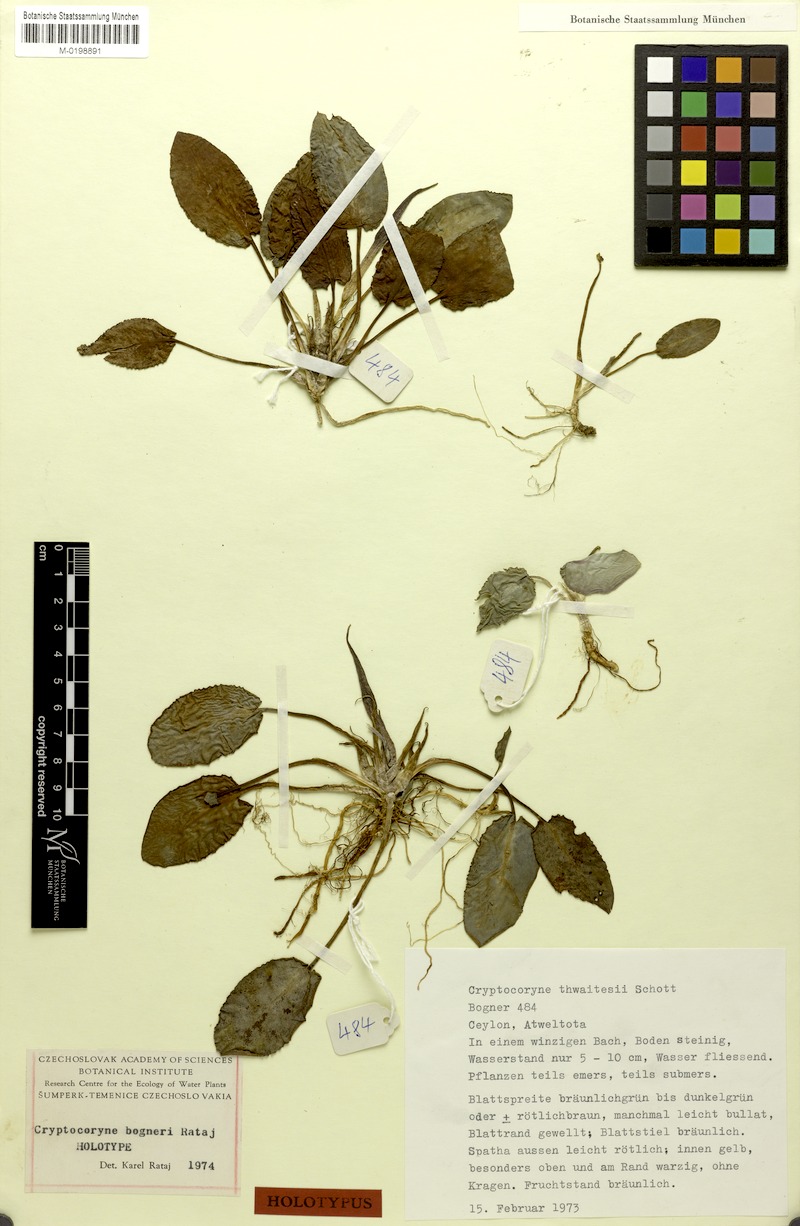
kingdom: Plantae
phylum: Tracheophyta
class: Liliopsida
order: Alismatales
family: Araceae
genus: Cryptocoryne
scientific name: Cryptocoryne bogneri
